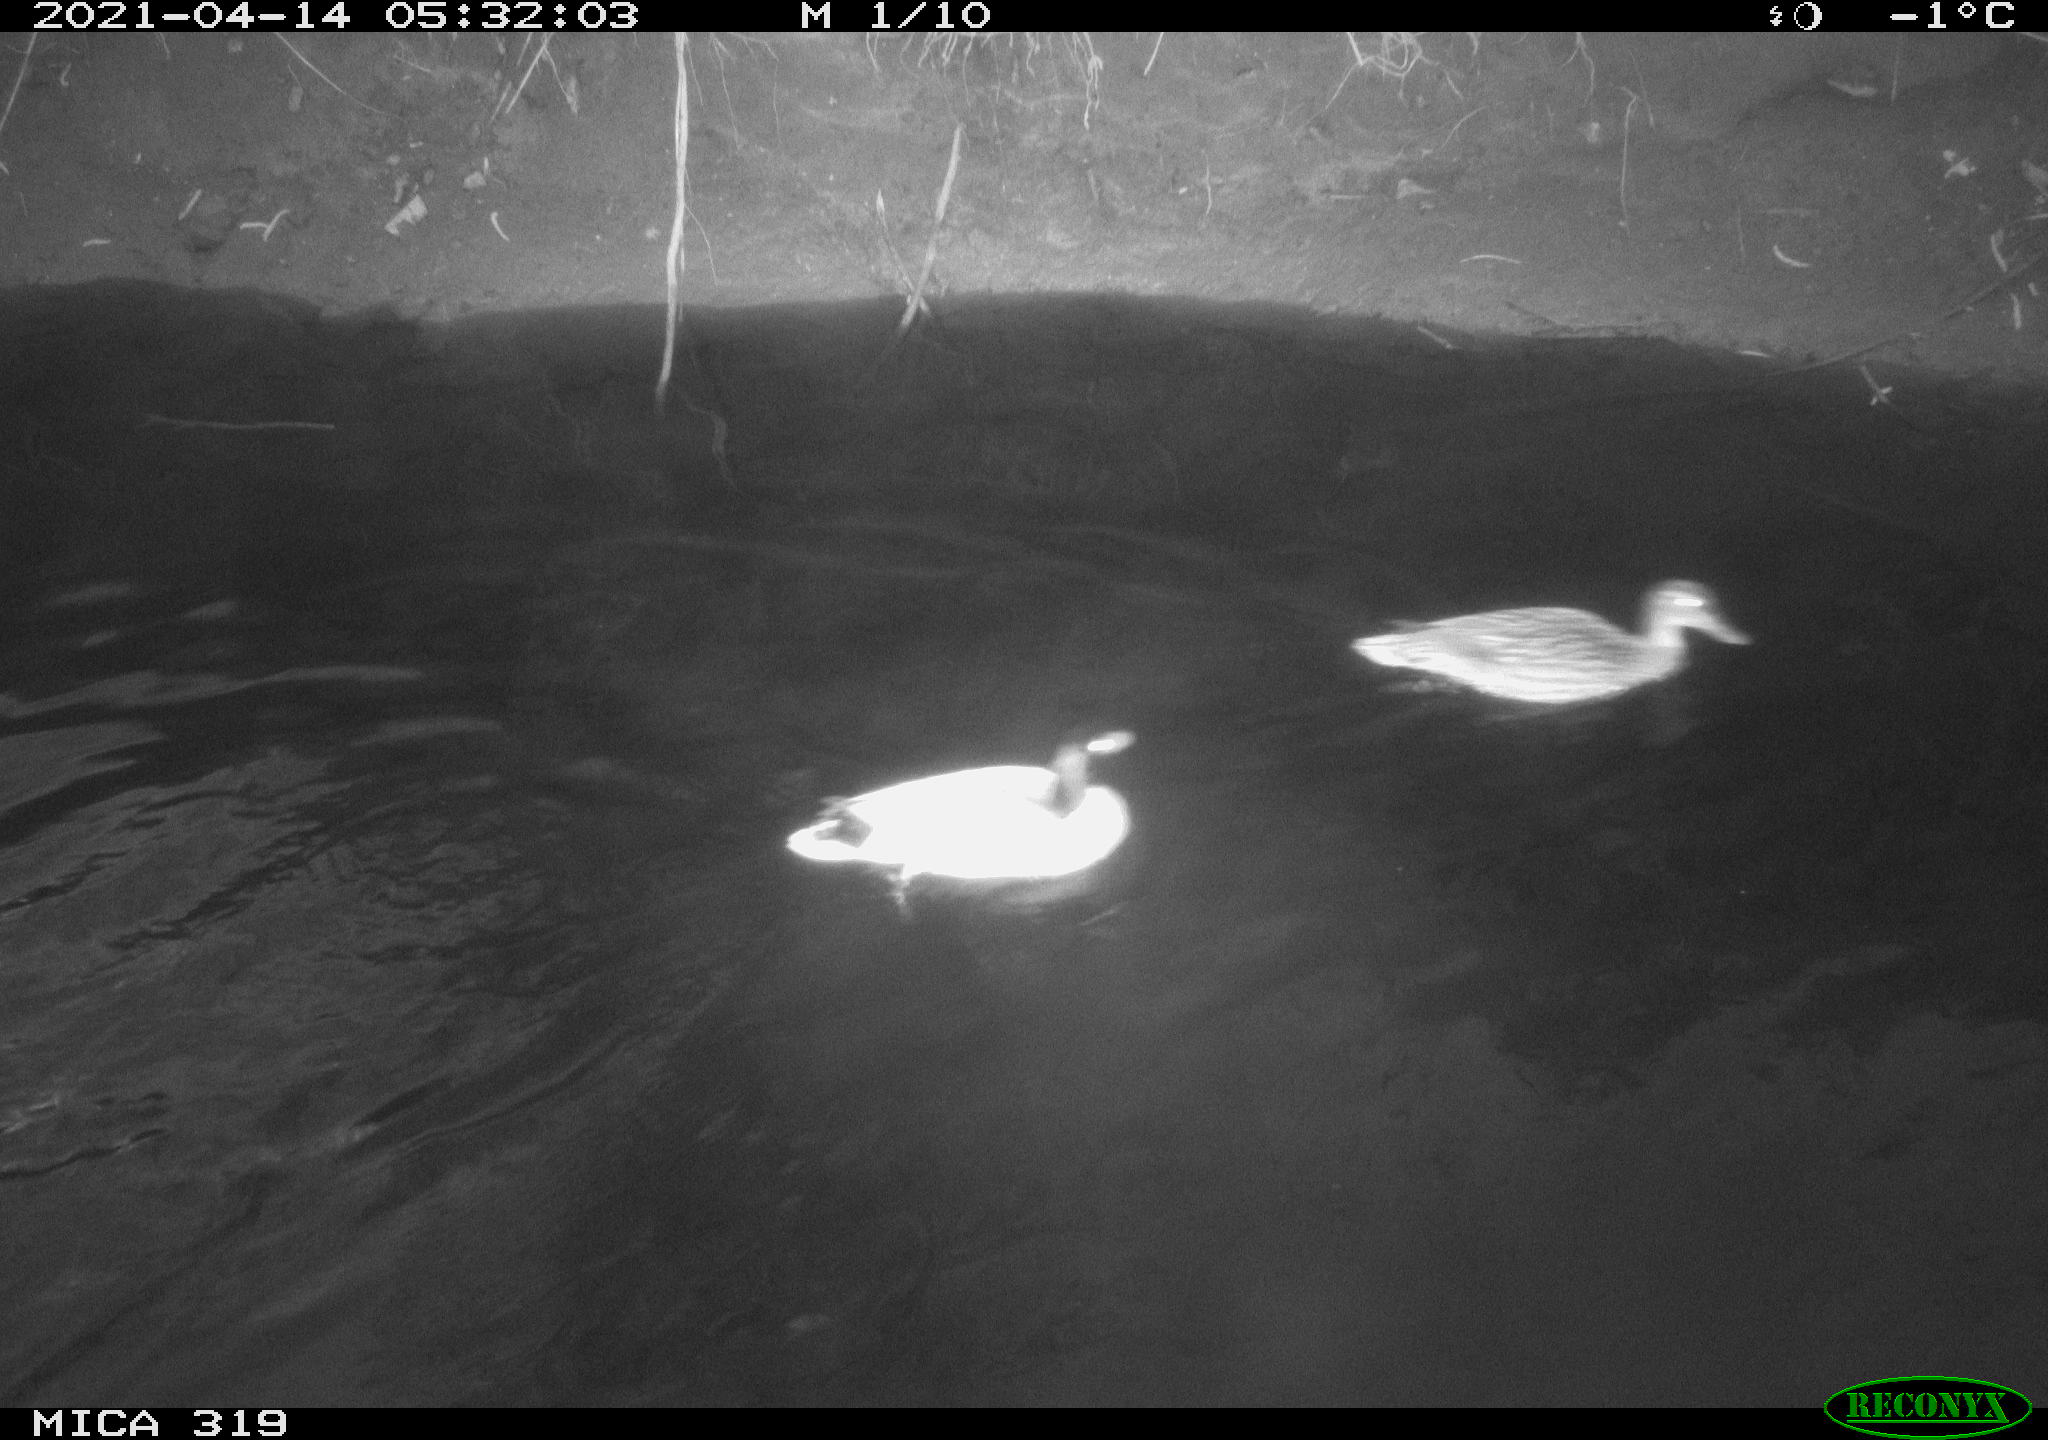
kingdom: Animalia
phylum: Chordata
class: Aves
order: Anseriformes
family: Anatidae
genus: Anas
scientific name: Anas platyrhynchos
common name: Mallard
